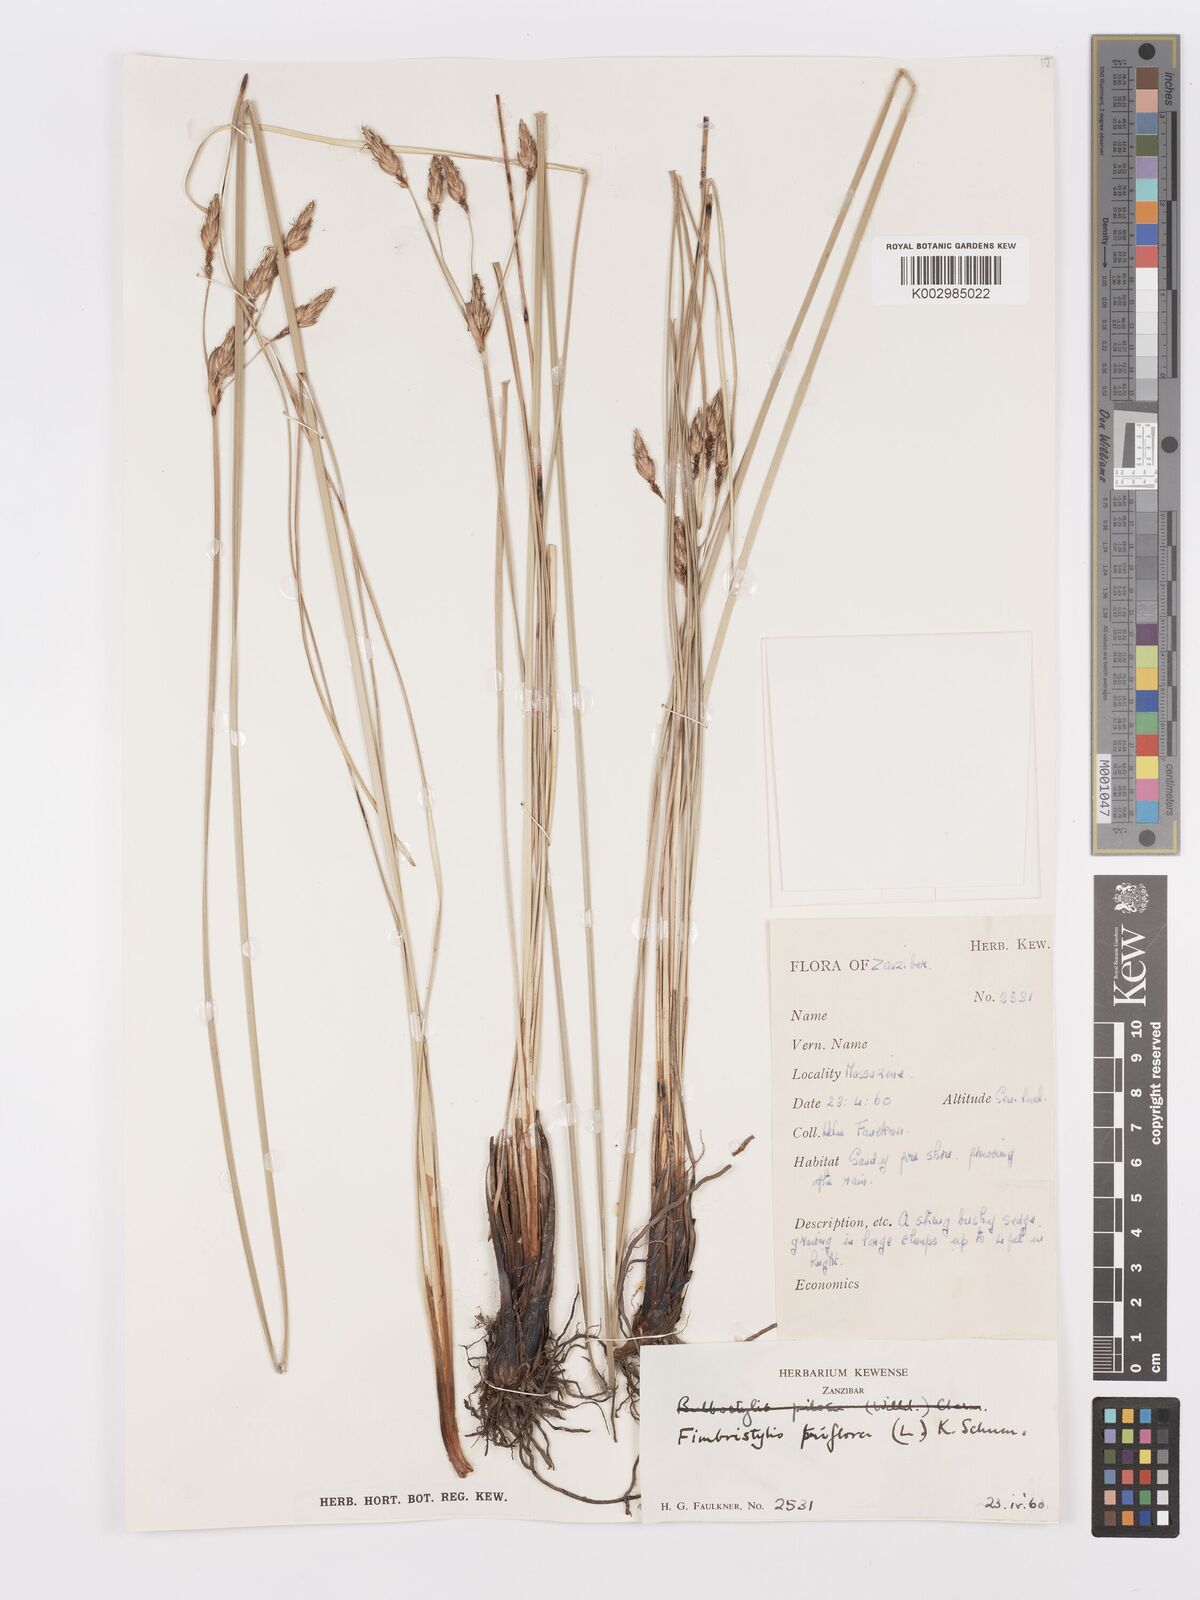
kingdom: Plantae
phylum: Tracheophyta
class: Liliopsida
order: Poales
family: Cyperaceae
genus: Abildgaardia
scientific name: Abildgaardia triflora
